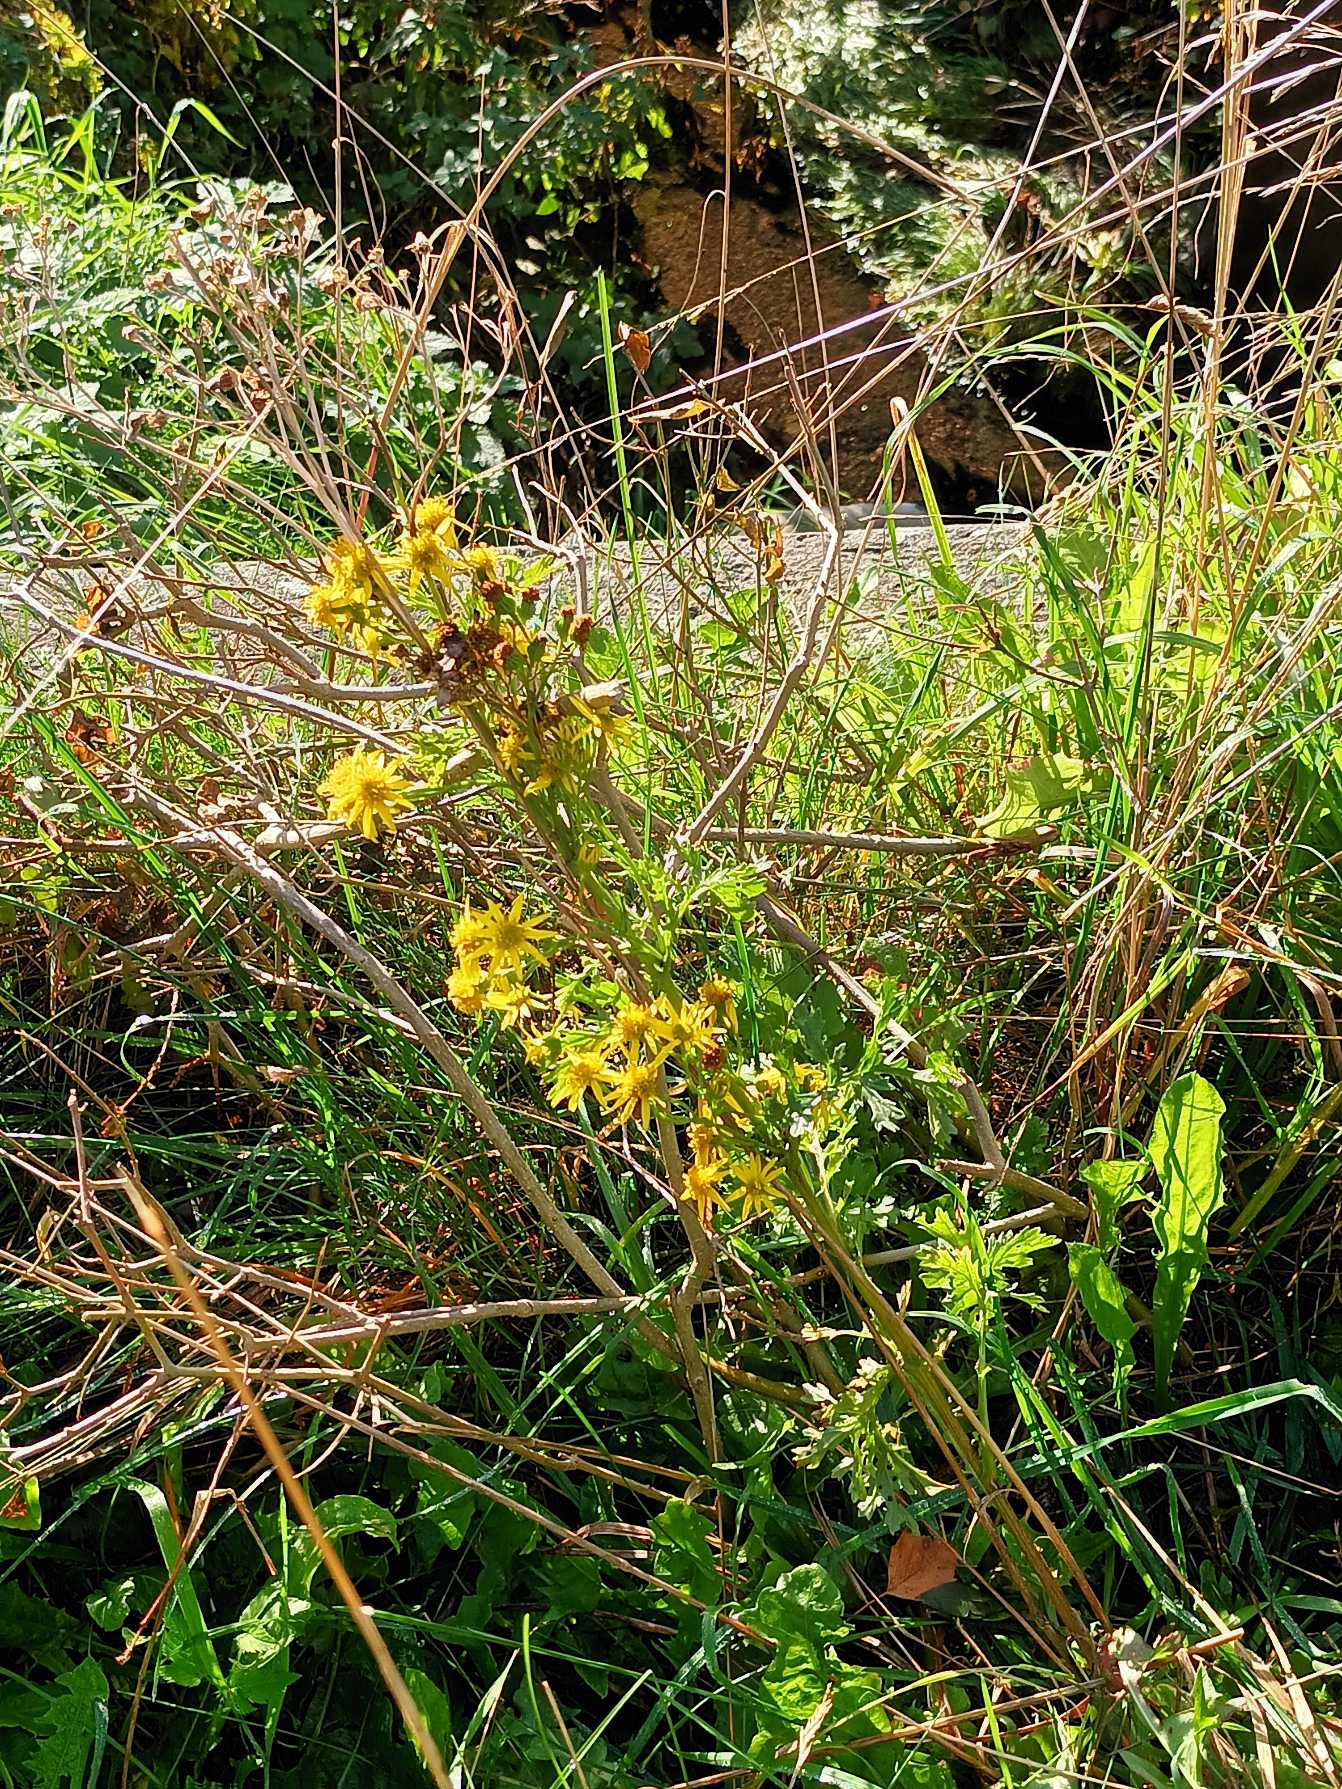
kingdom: Plantae
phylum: Tracheophyta
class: Magnoliopsida
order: Asterales
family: Asteraceae
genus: Jacobaea
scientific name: Jacobaea vulgaris
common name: Eng-brandbæger
